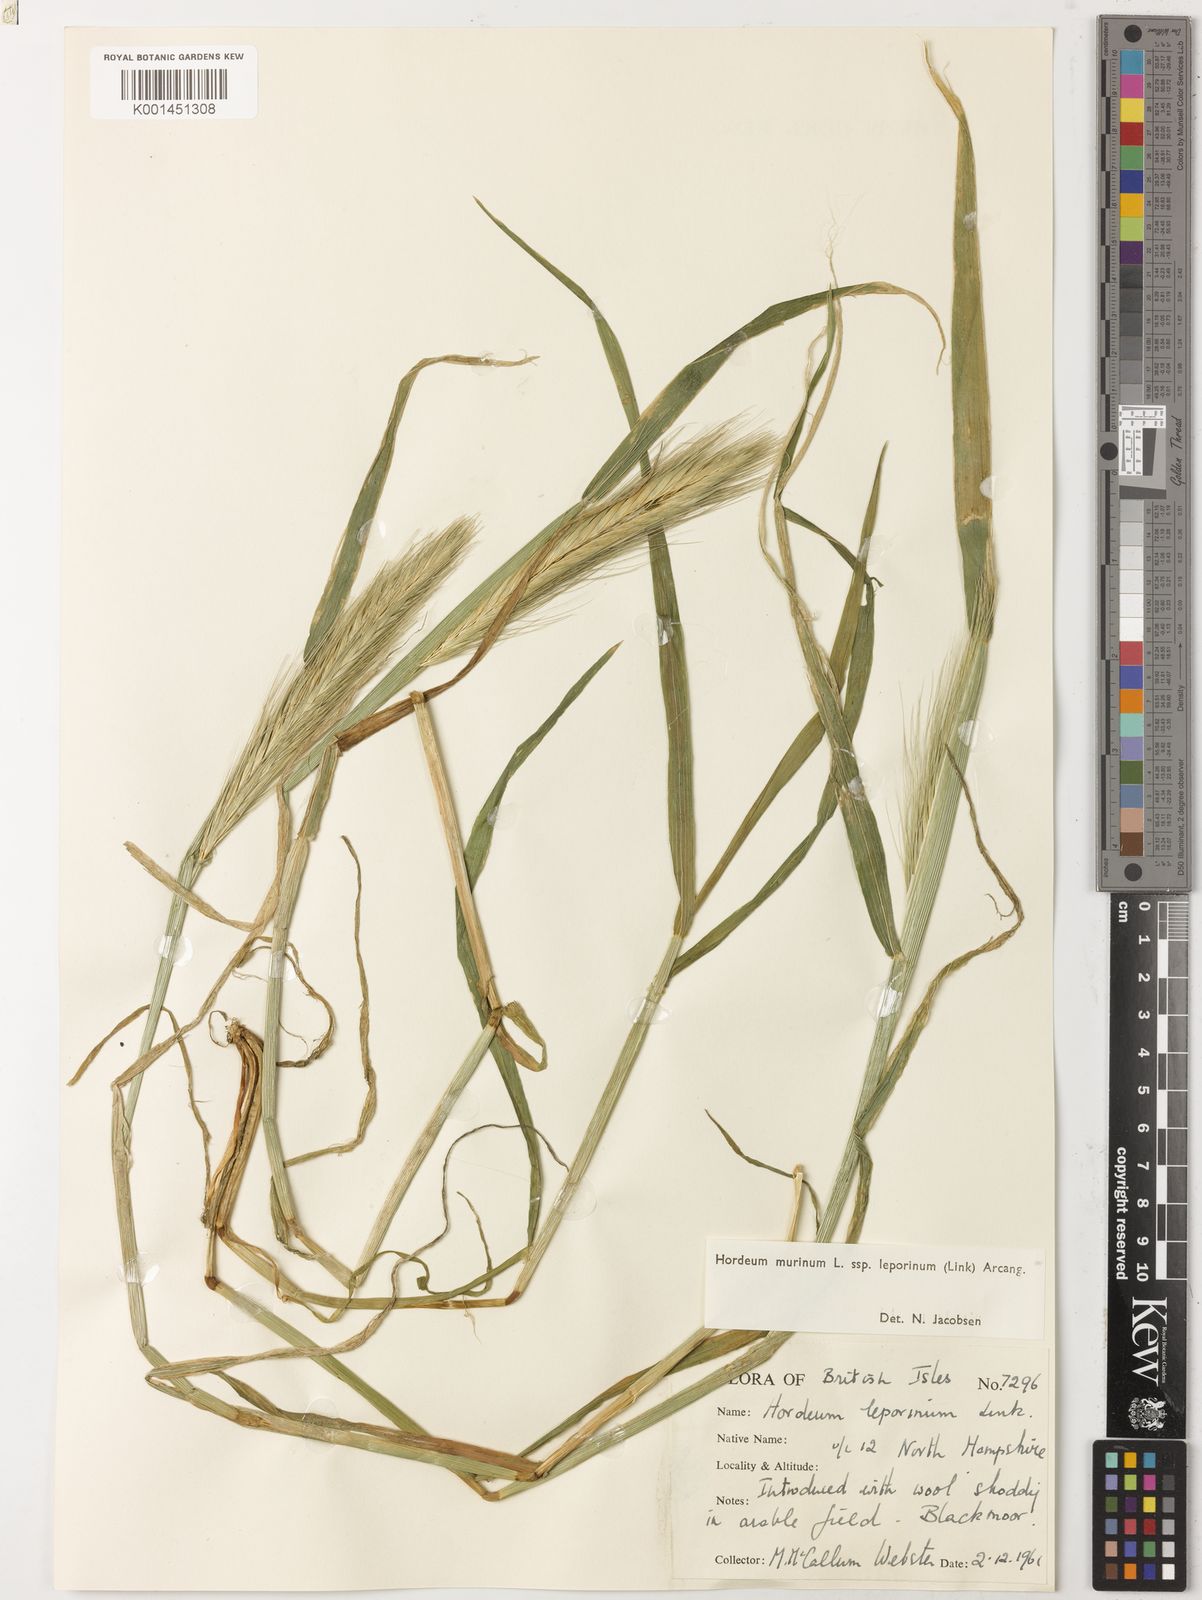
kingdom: Plantae
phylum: Tracheophyta
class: Liliopsida
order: Poales
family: Poaceae
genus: Hordeum
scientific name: Hordeum murinum
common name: Wall barley
